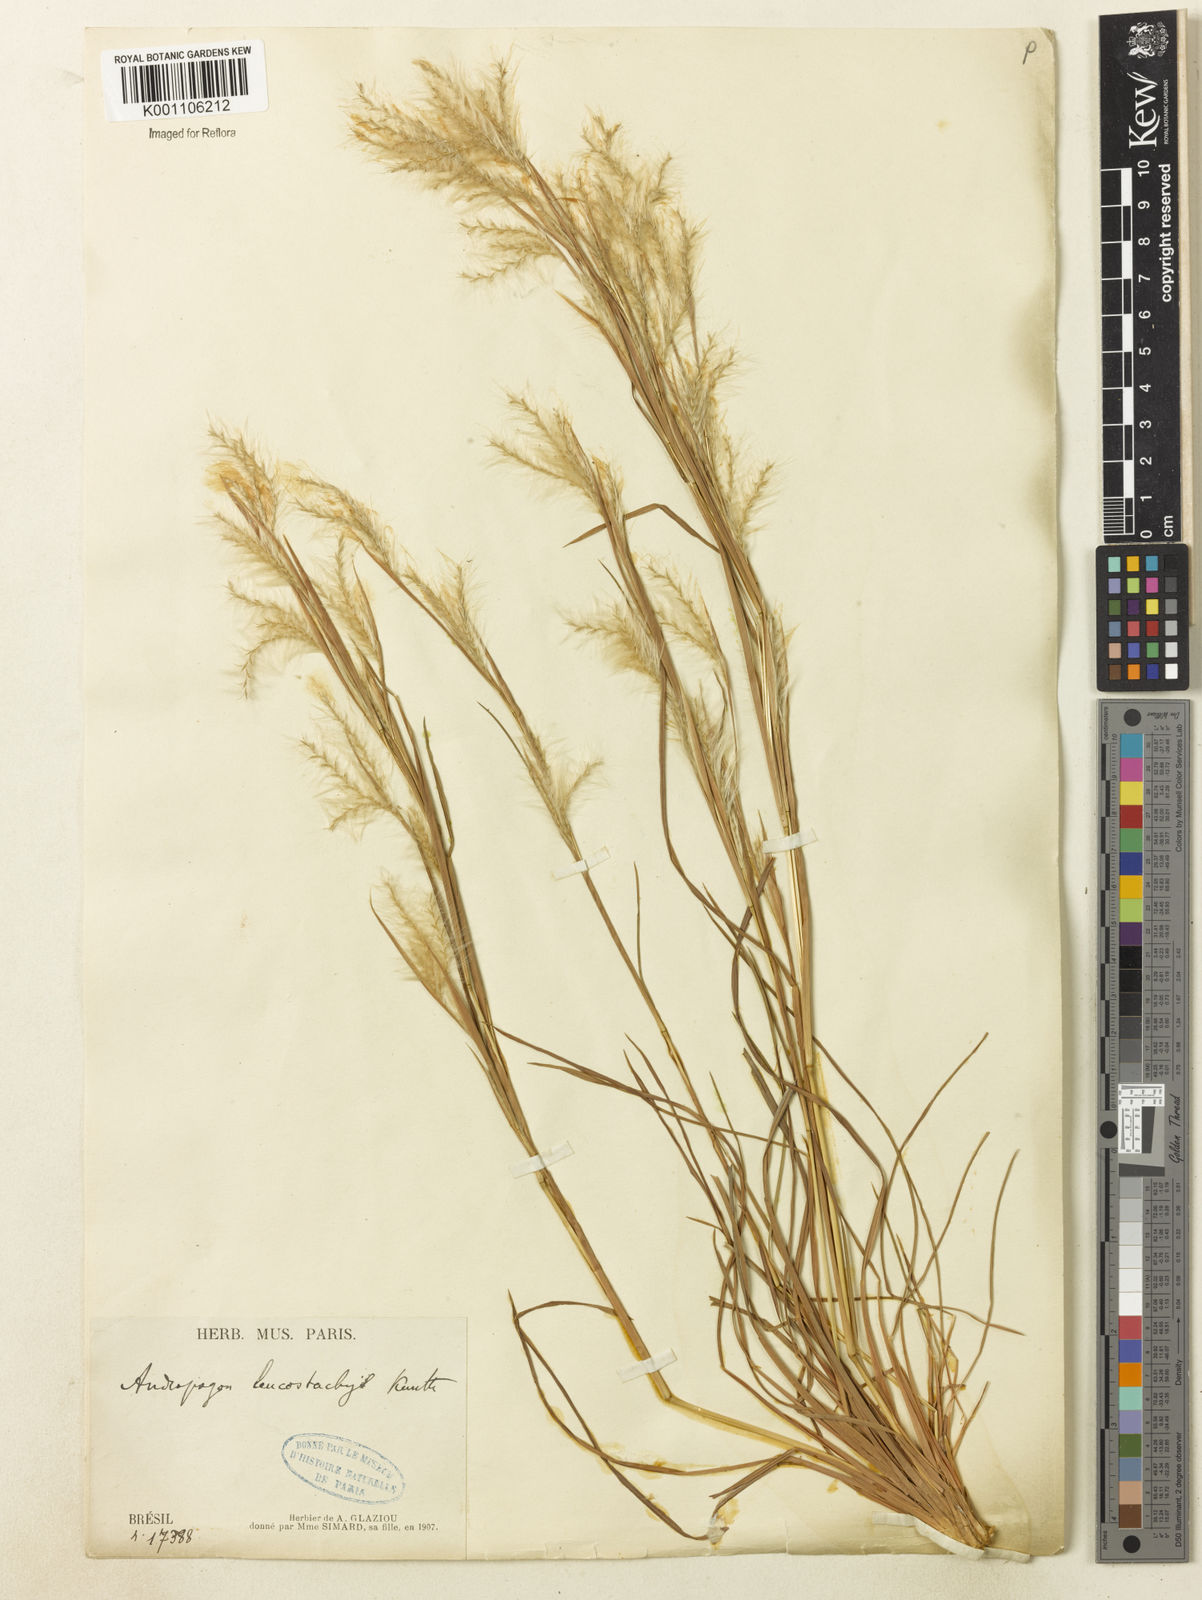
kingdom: Plantae
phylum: Tracheophyta
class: Liliopsida
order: Poales
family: Poaceae
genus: Andropogon
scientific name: Andropogon leucostachyus
